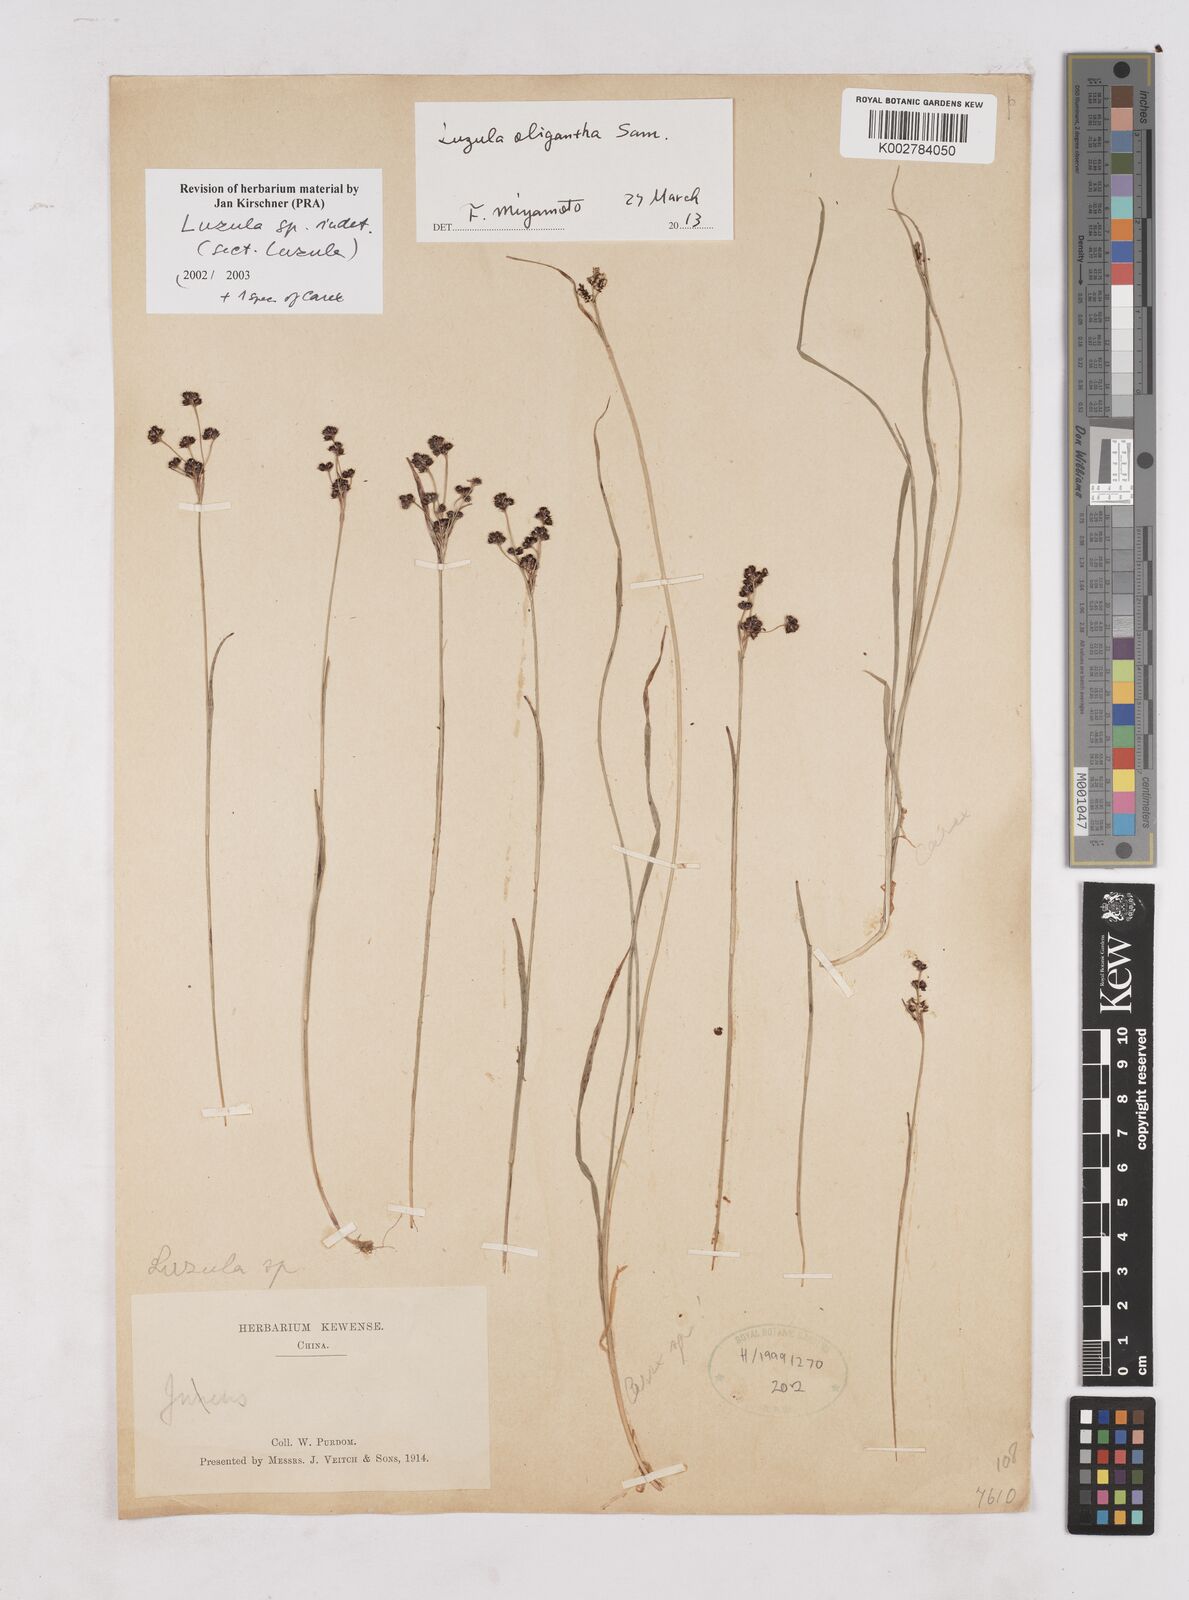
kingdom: Plantae
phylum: Tracheophyta
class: Liliopsida
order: Poales
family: Juncaceae
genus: Luzula
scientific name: Luzula
